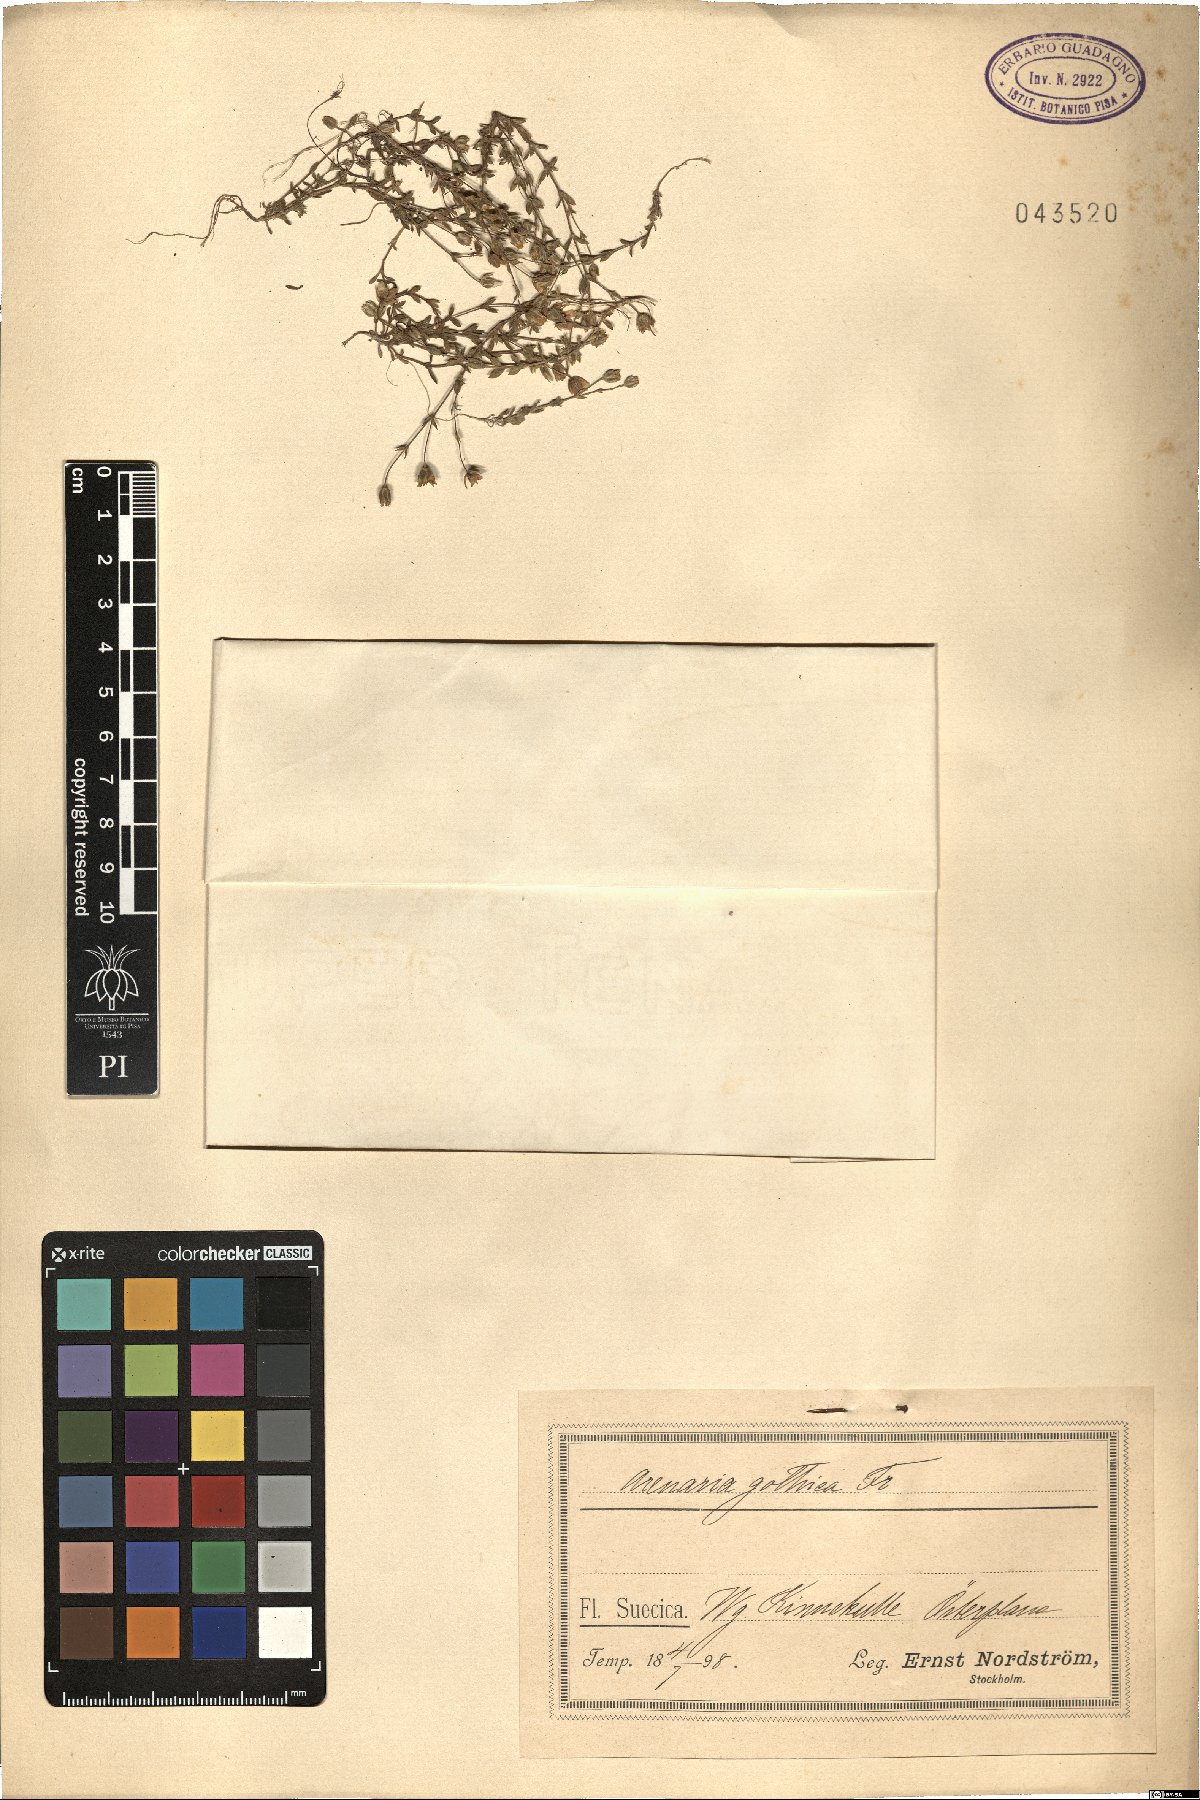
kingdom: Plantae
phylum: Tracheophyta
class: Magnoliopsida
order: Caryophyllales
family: Caryophyllaceae
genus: Arenaria
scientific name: Arenaria gothica
